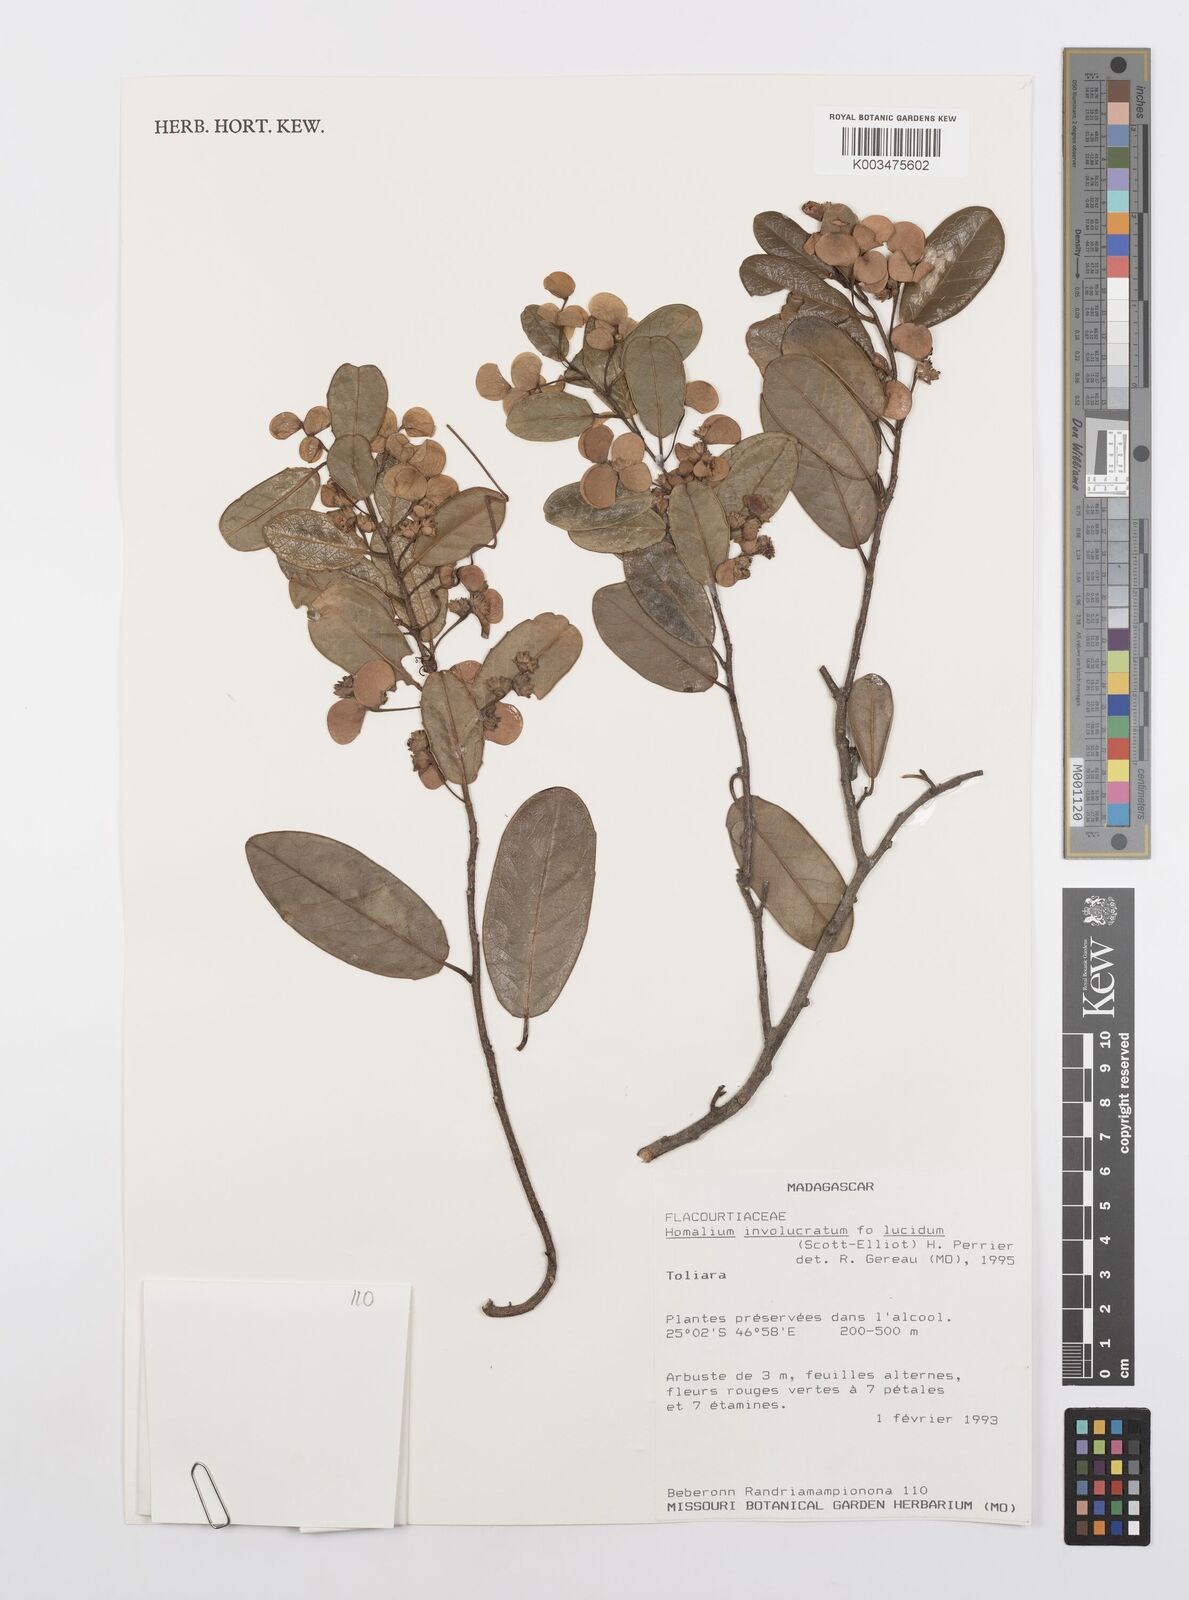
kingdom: Plantae
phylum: Tracheophyta
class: Magnoliopsida
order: Malpighiales
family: Salicaceae
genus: Homalium
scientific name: Homalium involucratum
